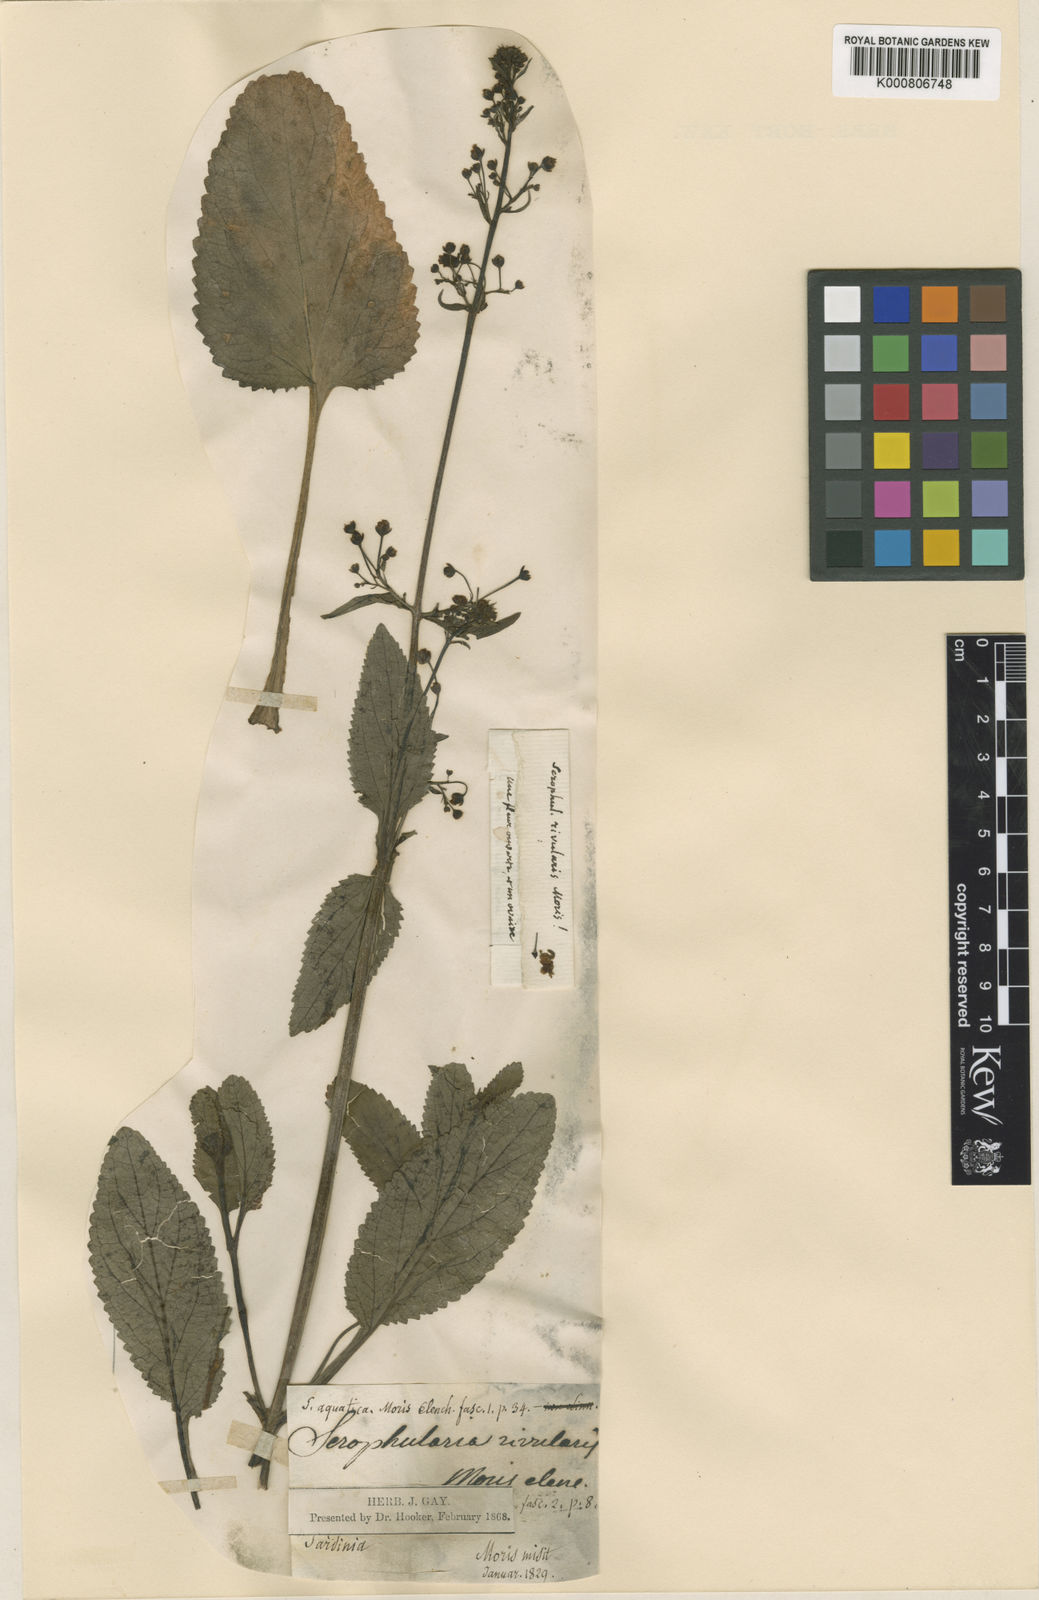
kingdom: Plantae
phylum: Tracheophyta
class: Magnoliopsida
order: Lamiales
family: Scrophulariaceae
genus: Scrophularia
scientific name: Scrophularia umbrosa
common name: Green figwort
